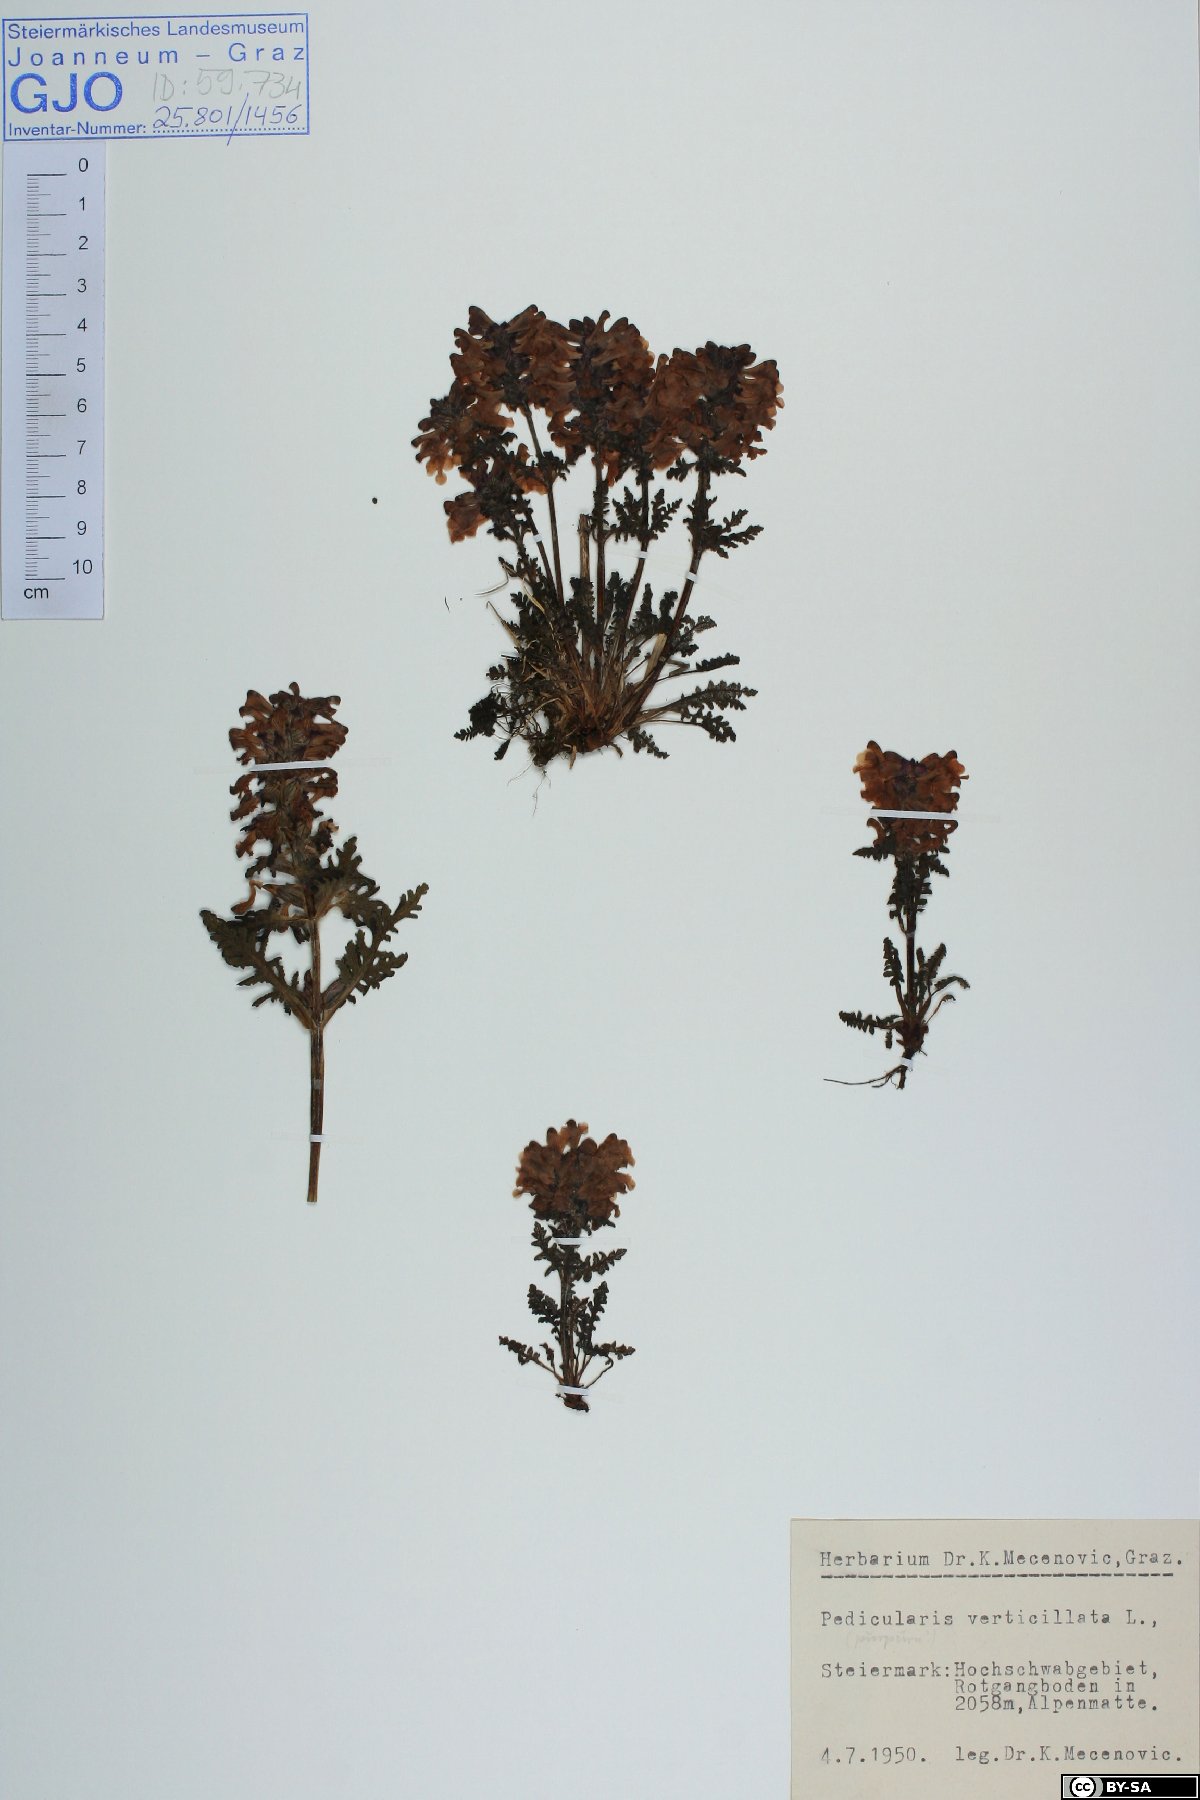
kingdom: Plantae
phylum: Tracheophyta
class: Magnoliopsida
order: Lamiales
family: Orobanchaceae
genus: Pedicularis
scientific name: Pedicularis verticillata
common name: Whorled lousewort
